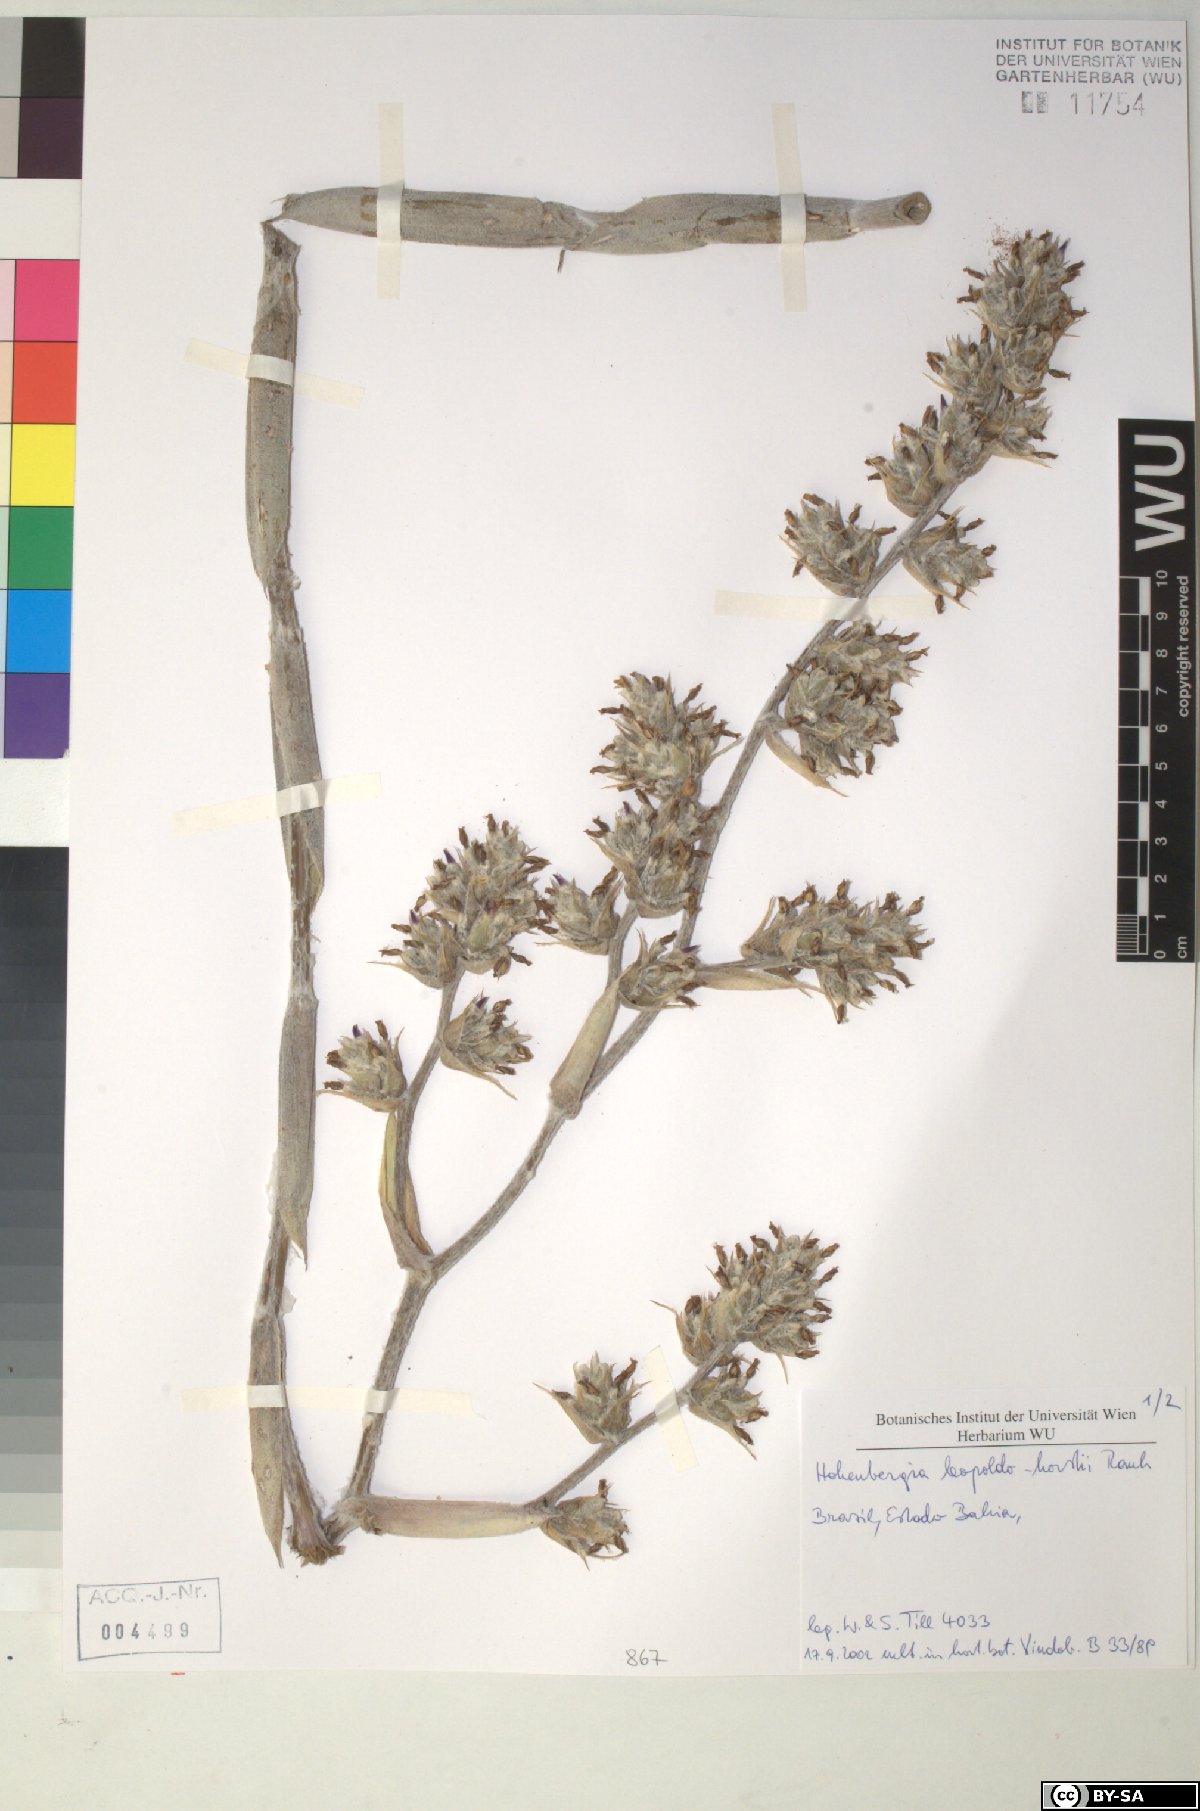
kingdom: Plantae
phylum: Tracheophyta
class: Liliopsida
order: Poales
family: Bromeliaceae
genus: Hohenbergia
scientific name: Hohenbergia leopoldo-horstii
